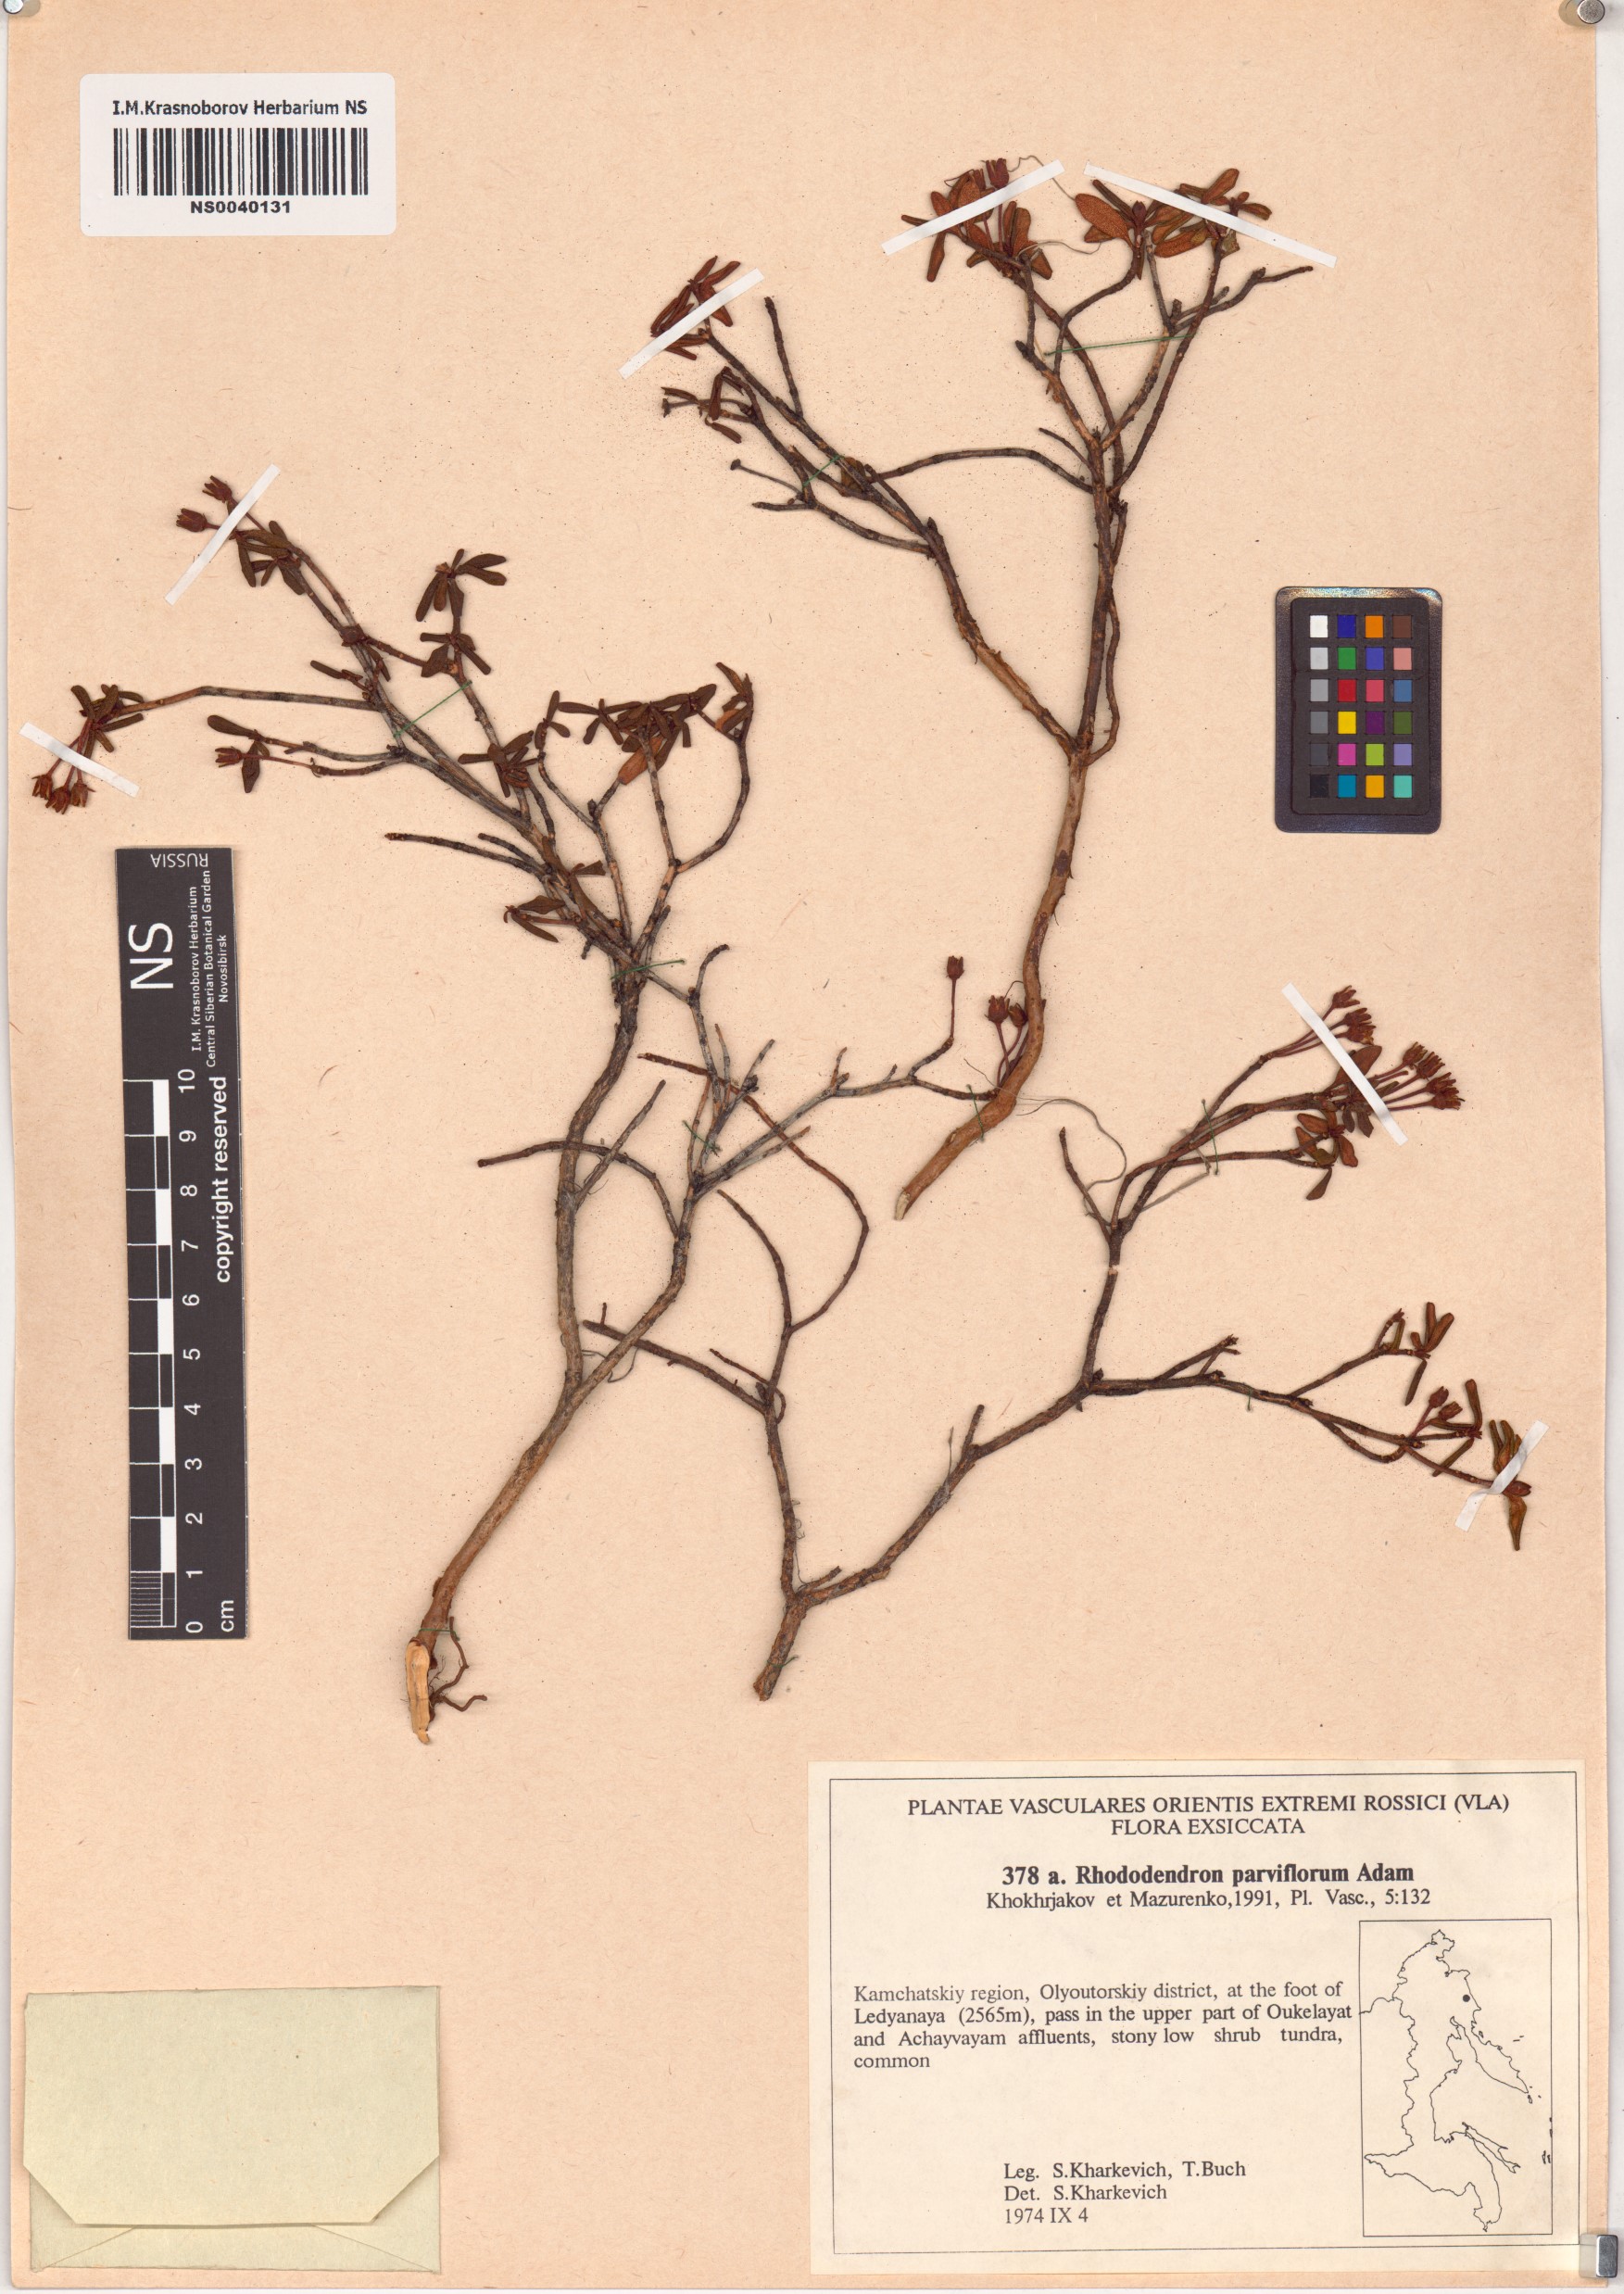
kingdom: Plantae
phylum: Tracheophyta
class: Magnoliopsida
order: Ericales
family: Ericaceae
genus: Rhododendron
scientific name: Rhododendron parvifolium
